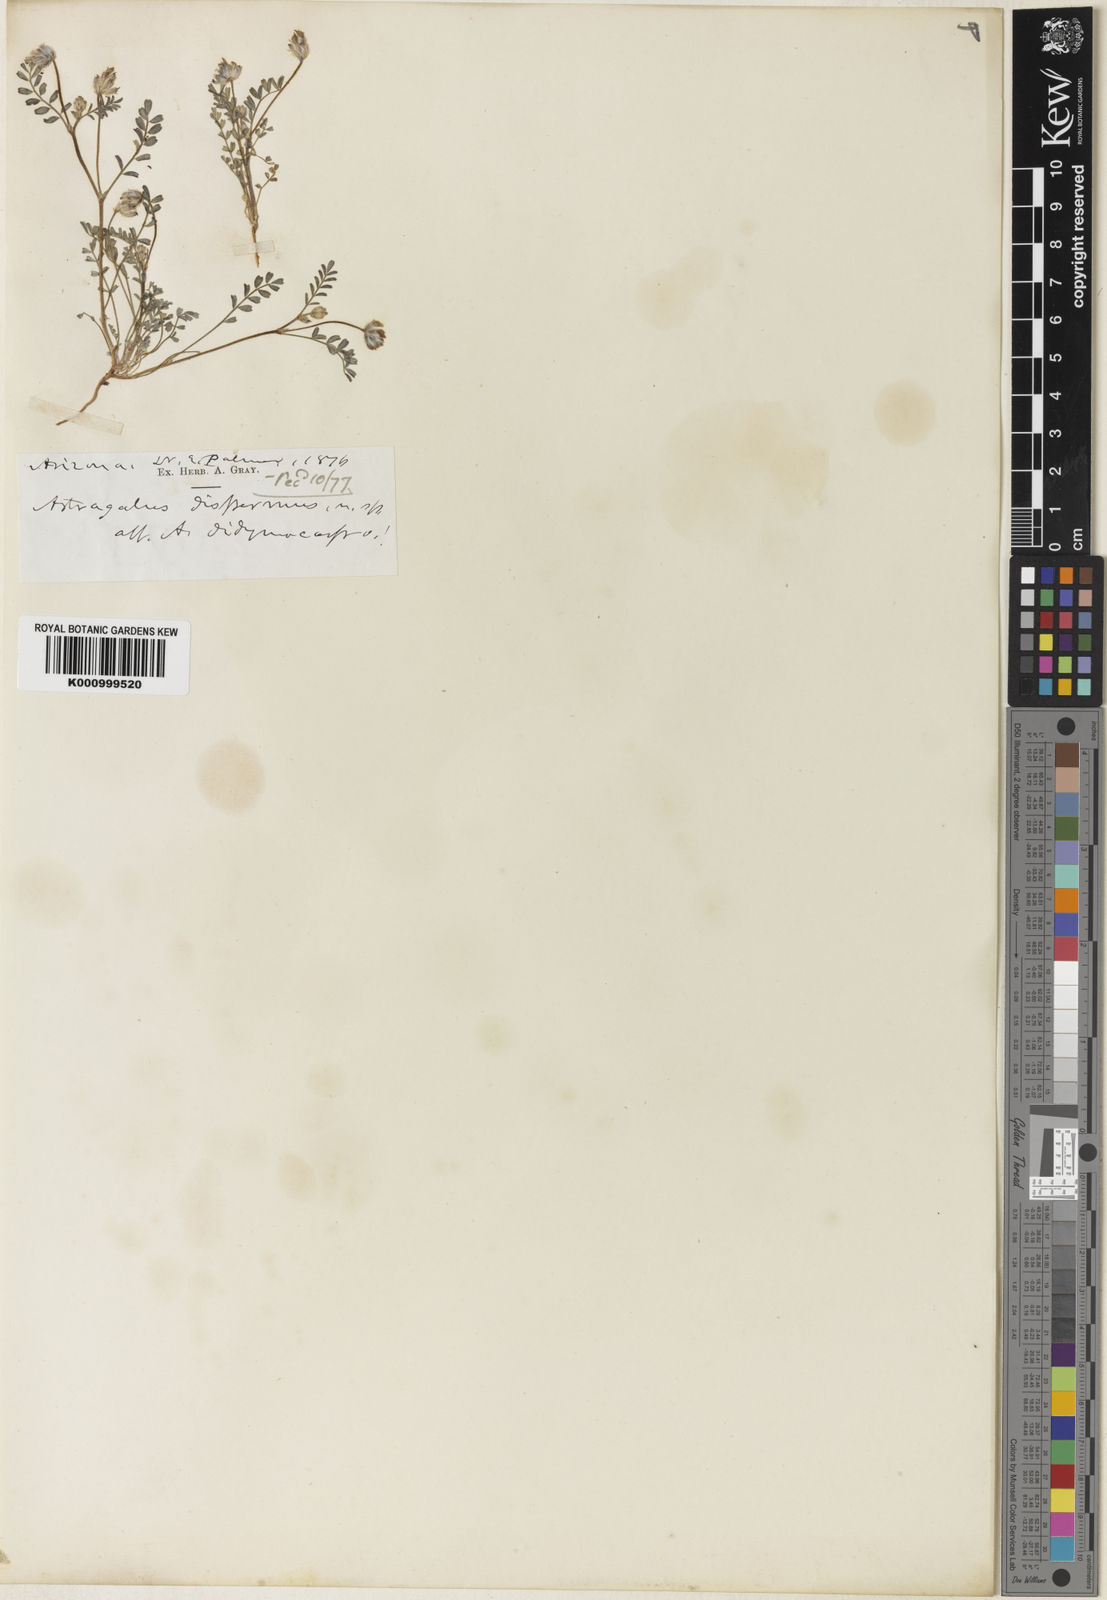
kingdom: Plantae
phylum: Tracheophyta
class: Magnoliopsida
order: Fabales
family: Fabaceae
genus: Astragalus
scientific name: Astragalus didymocarpus
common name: Dwarf white milkvetch
